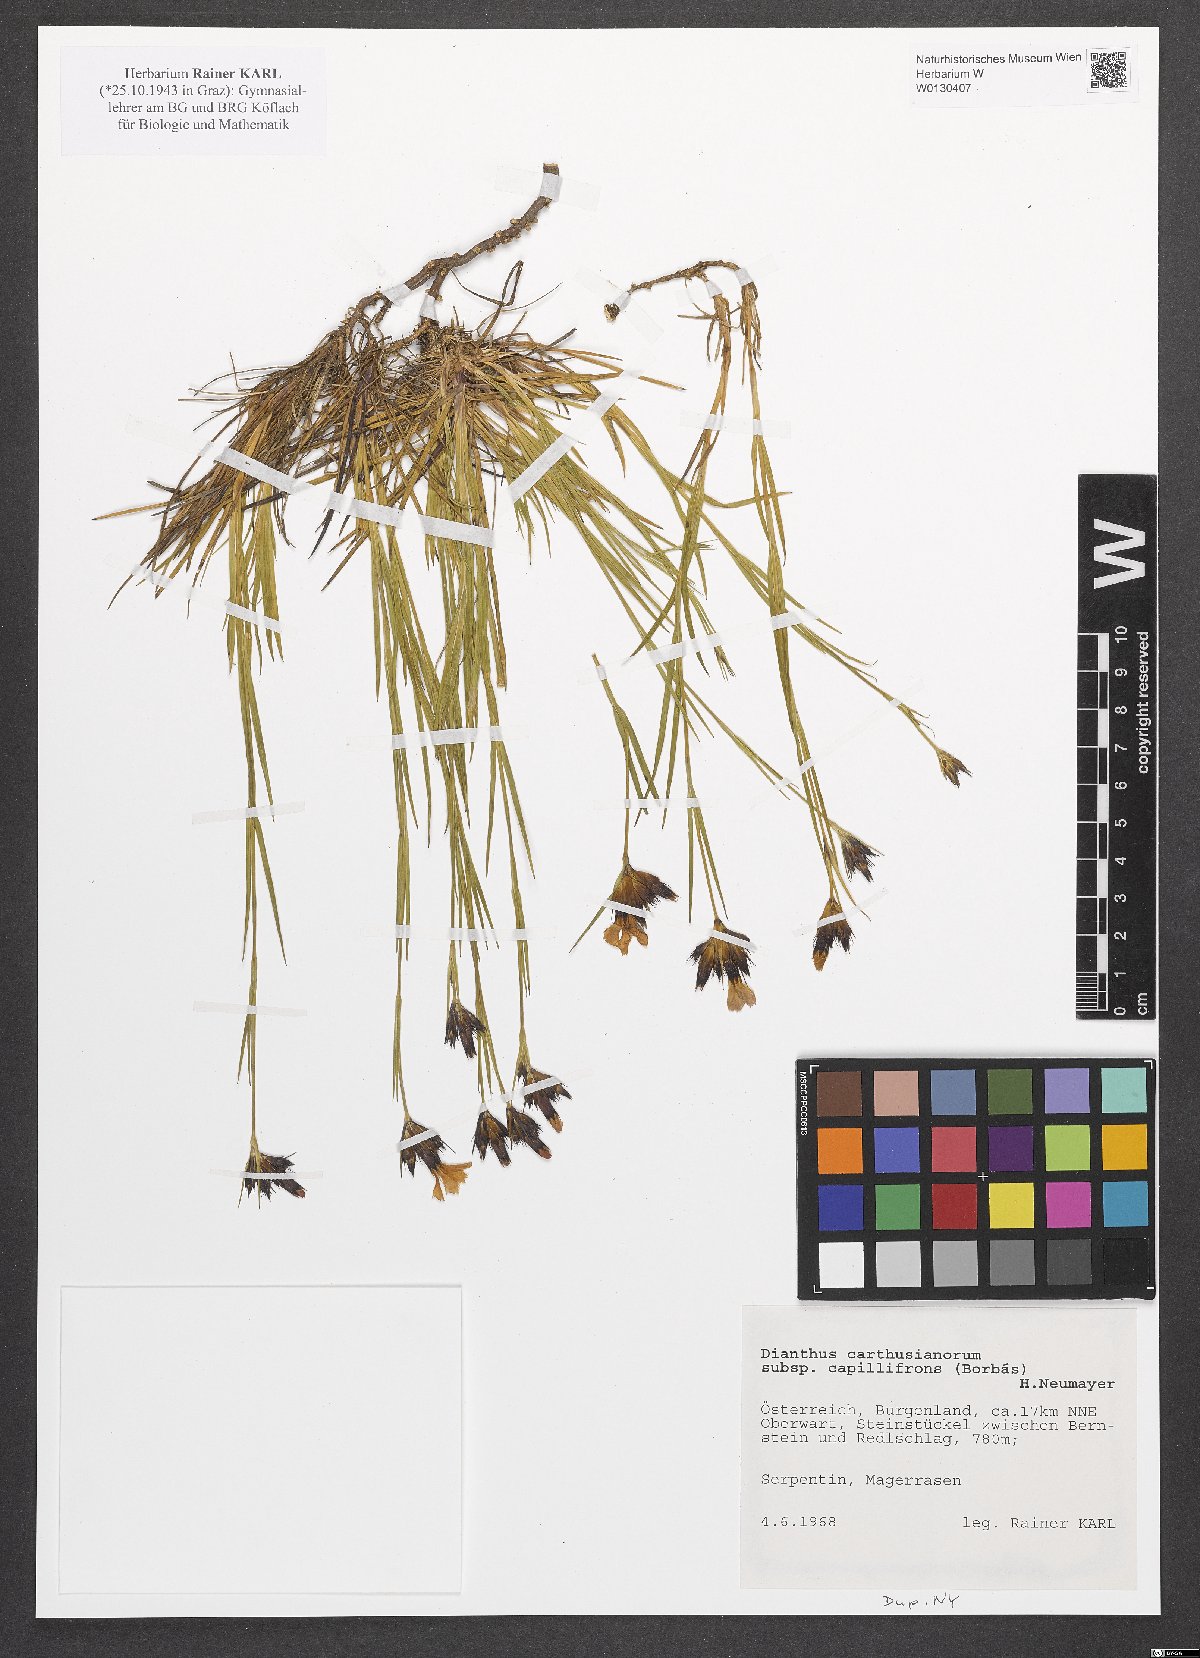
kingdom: Plantae
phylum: Tracheophyta
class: Magnoliopsida
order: Caryophyllales
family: Caryophyllaceae
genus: Dianthus
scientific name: Dianthus carthusianorum
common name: Carthusian pink
